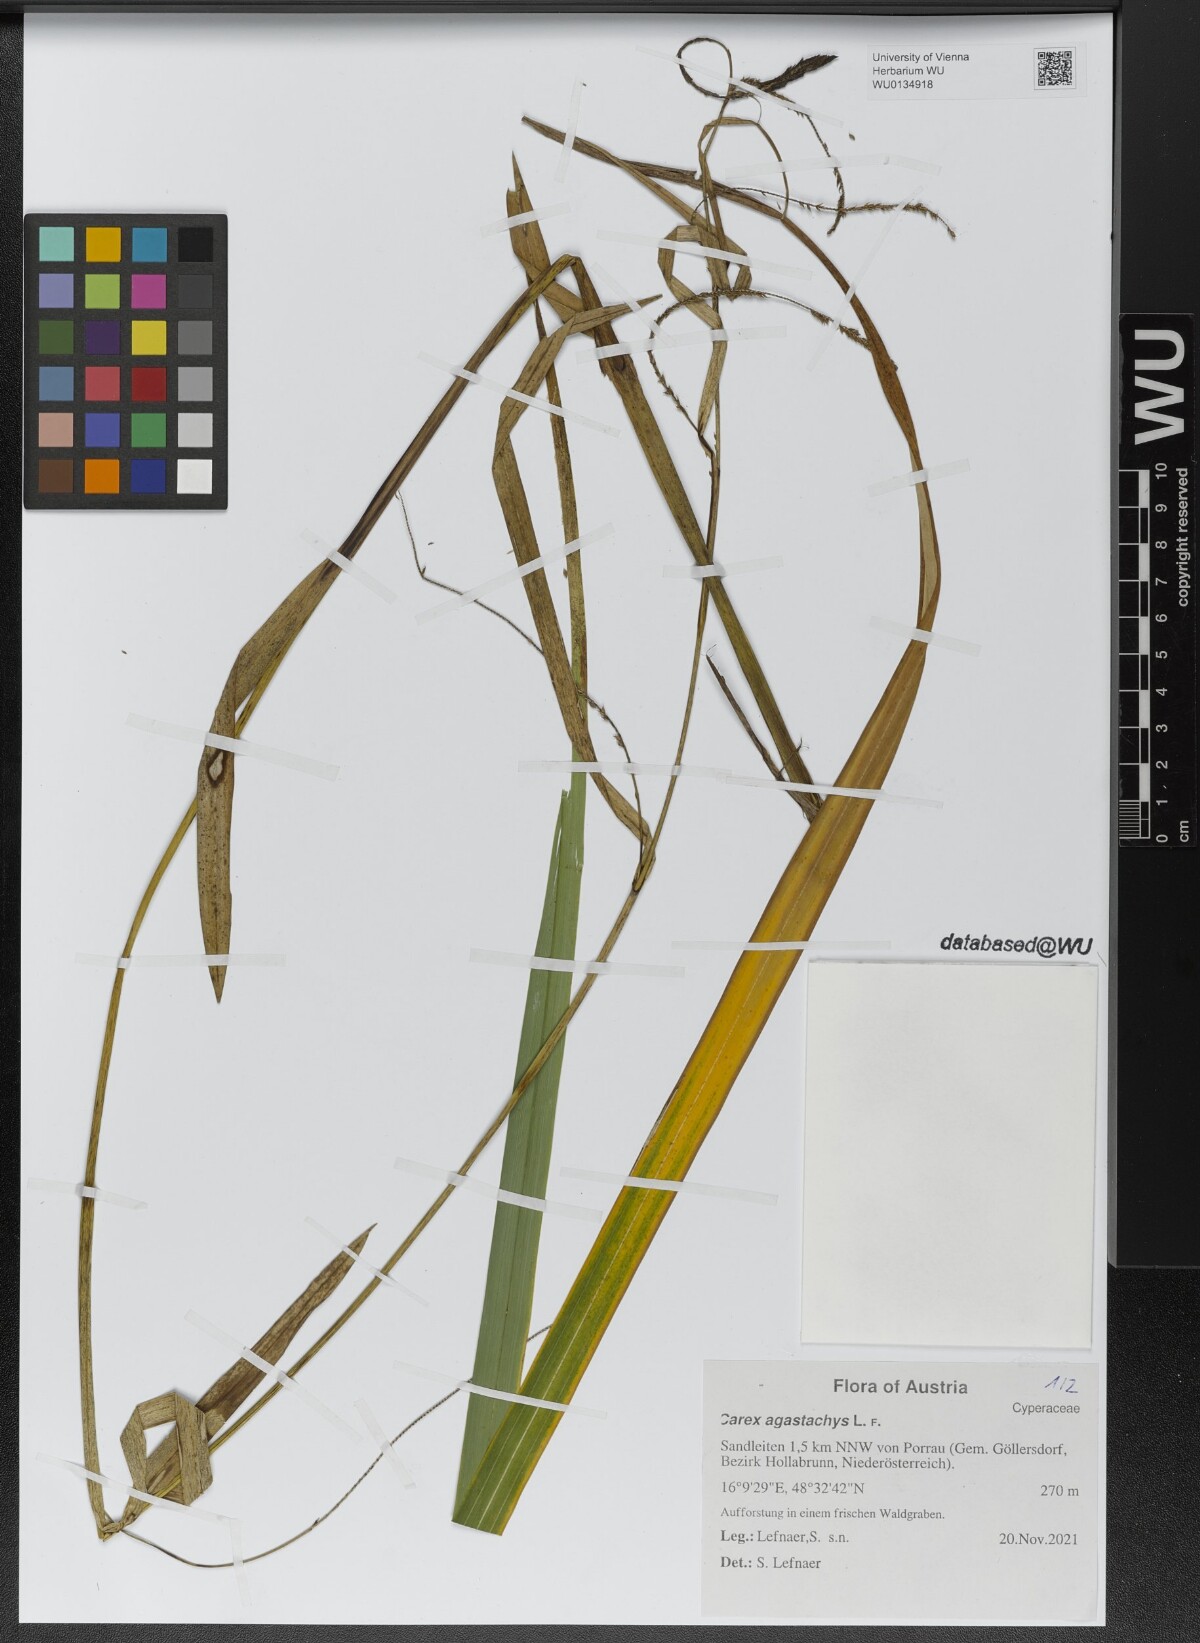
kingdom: Plantae
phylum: Tracheophyta
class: Liliopsida
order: Poales
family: Cyperaceae
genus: Carex
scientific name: Carex agastachys
